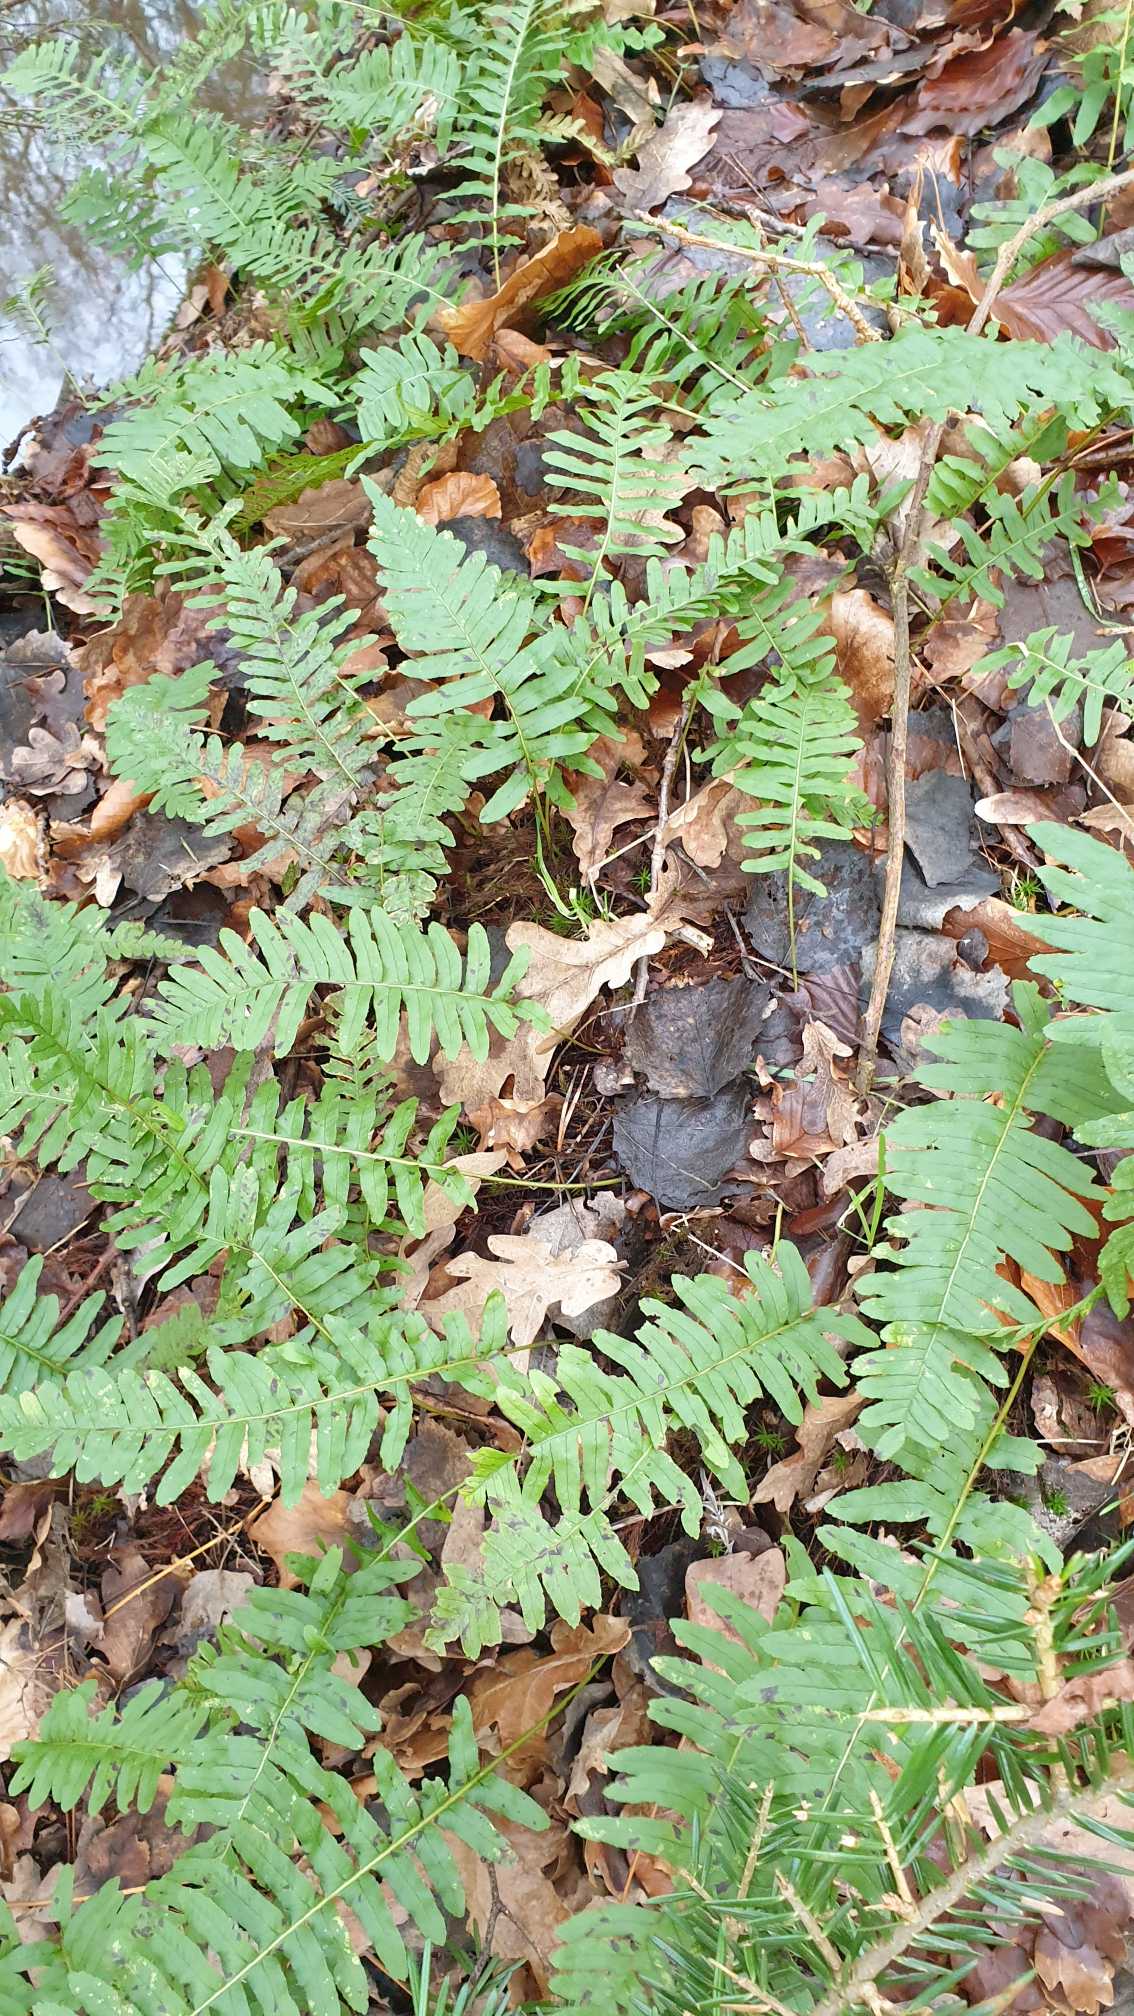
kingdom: Plantae
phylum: Tracheophyta
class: Polypodiopsida
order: Polypodiales
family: Polypodiaceae
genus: Polypodium
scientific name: Polypodium vulgare
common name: Almindelig engelsød
